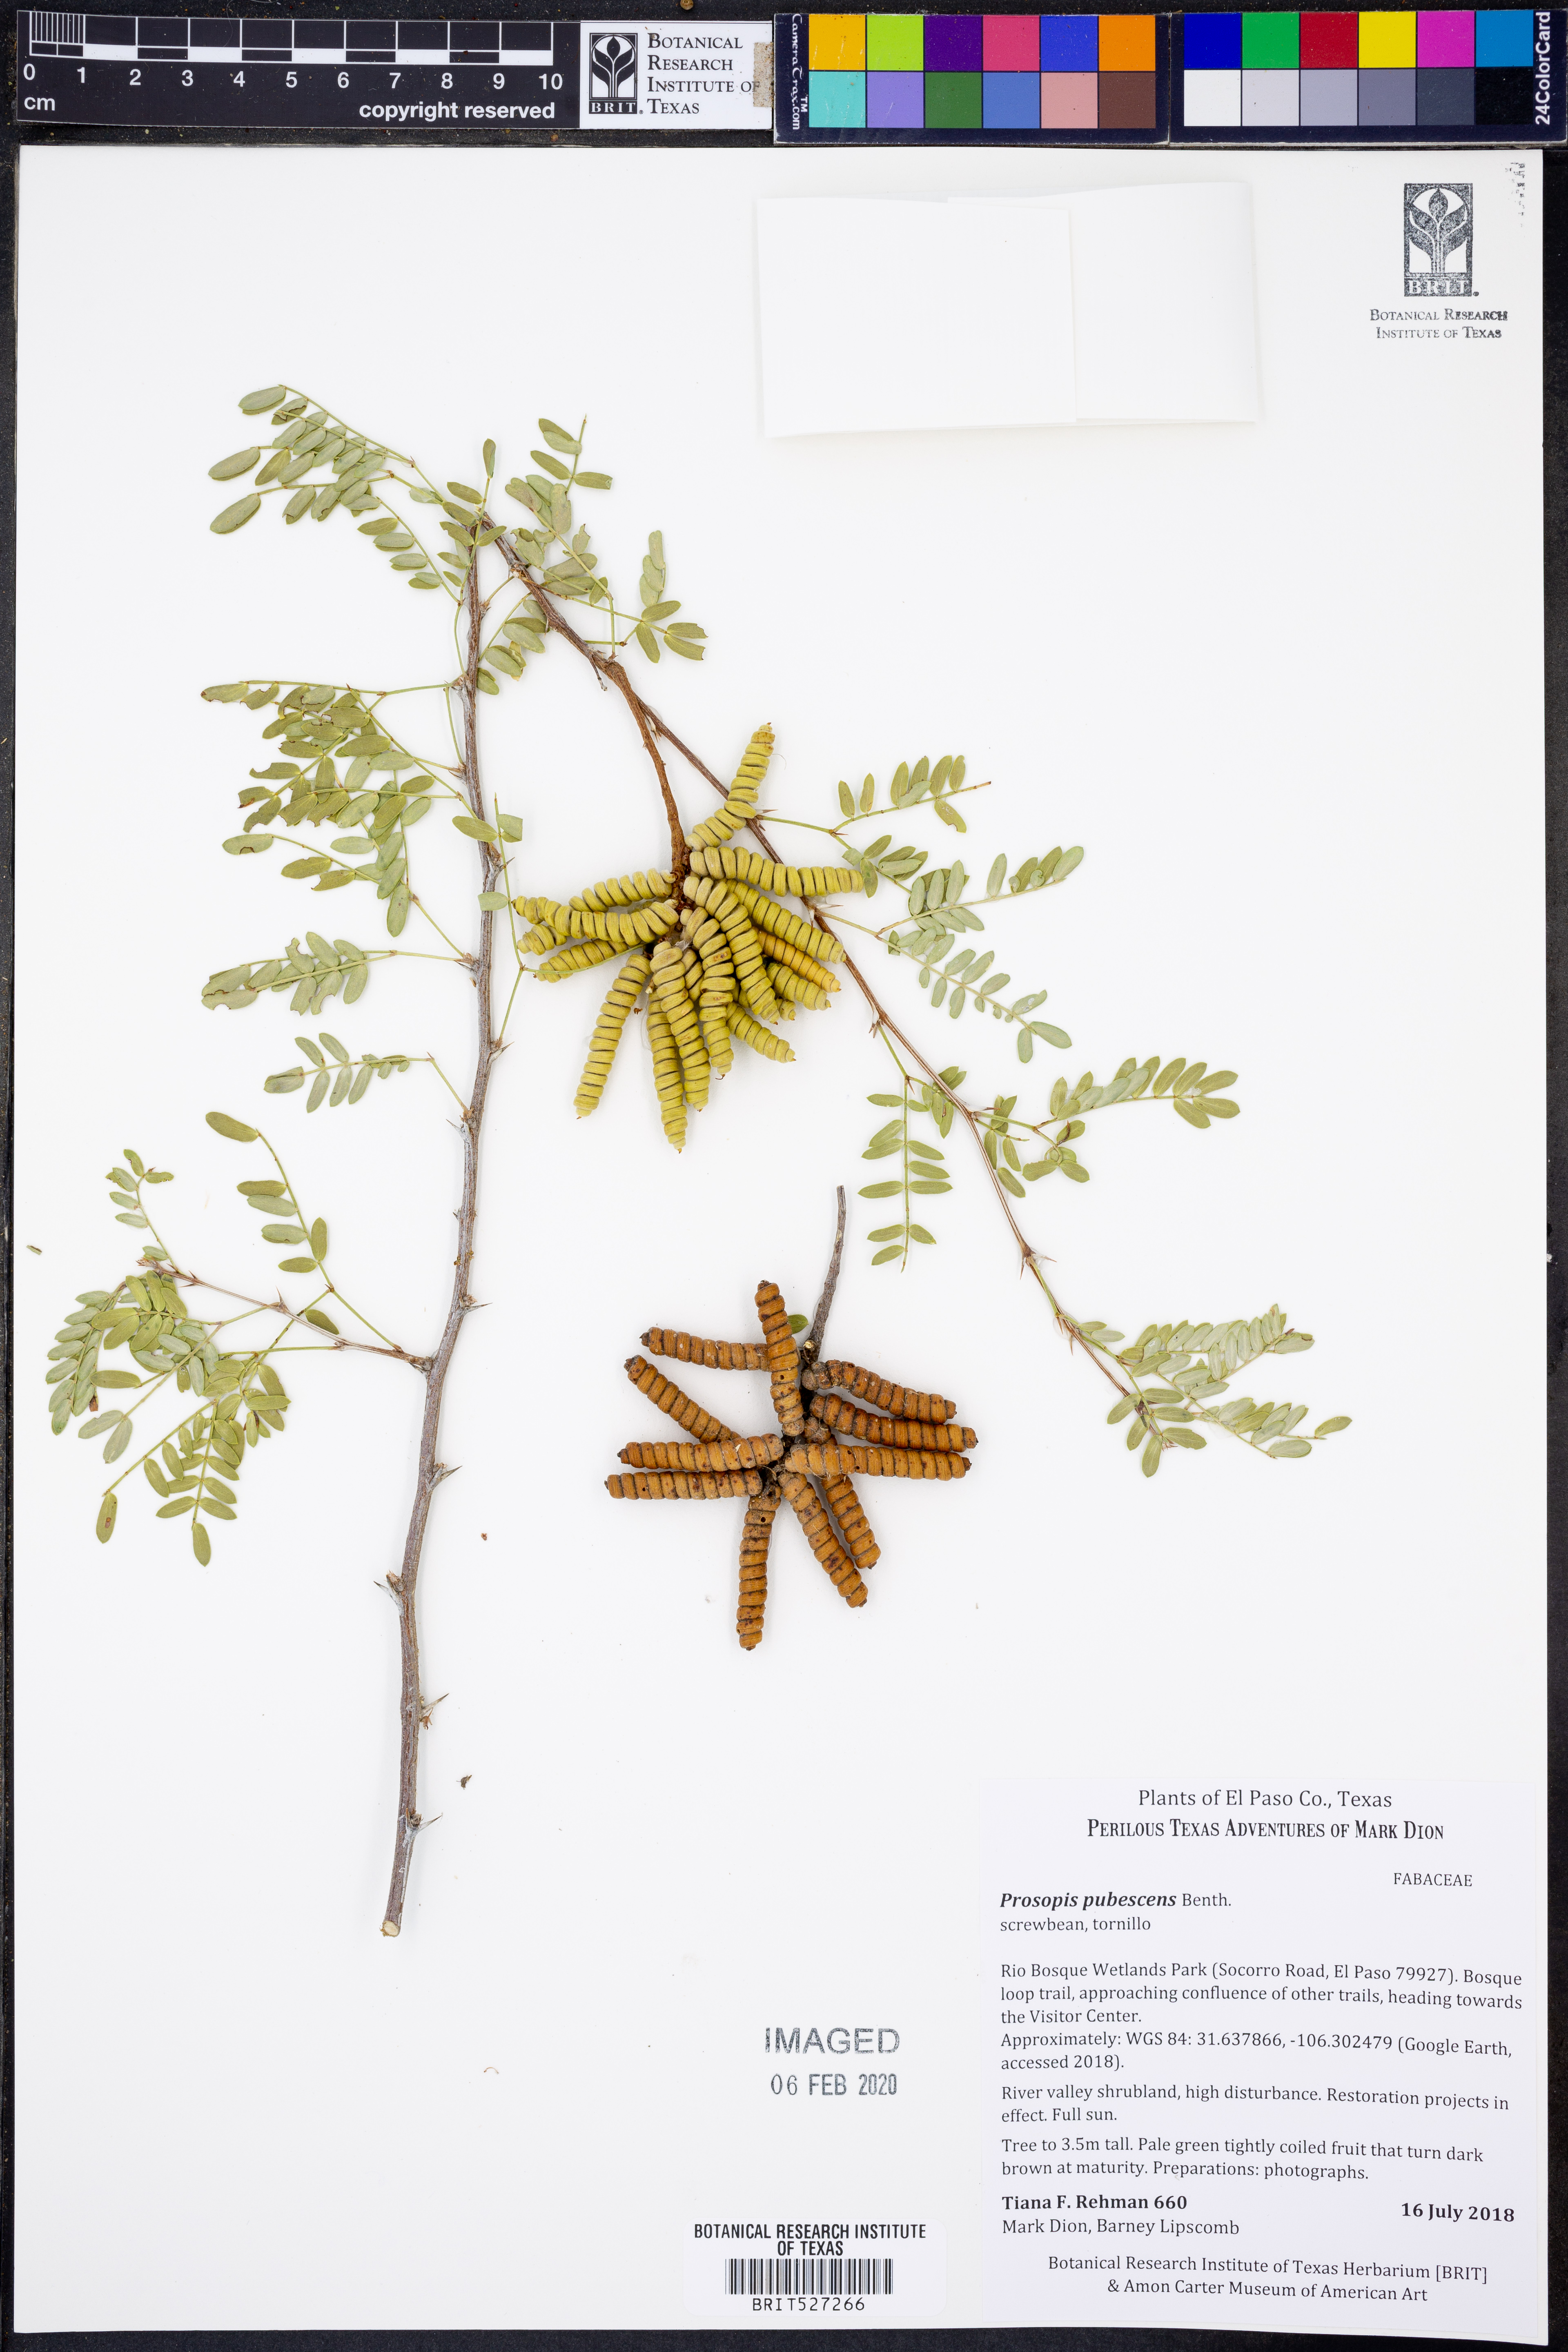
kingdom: Plantae
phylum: Tracheophyta
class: Magnoliopsida
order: Fabales
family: Fabaceae
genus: Prosopis
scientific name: Prosopis pubescens
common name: Screw-bean
